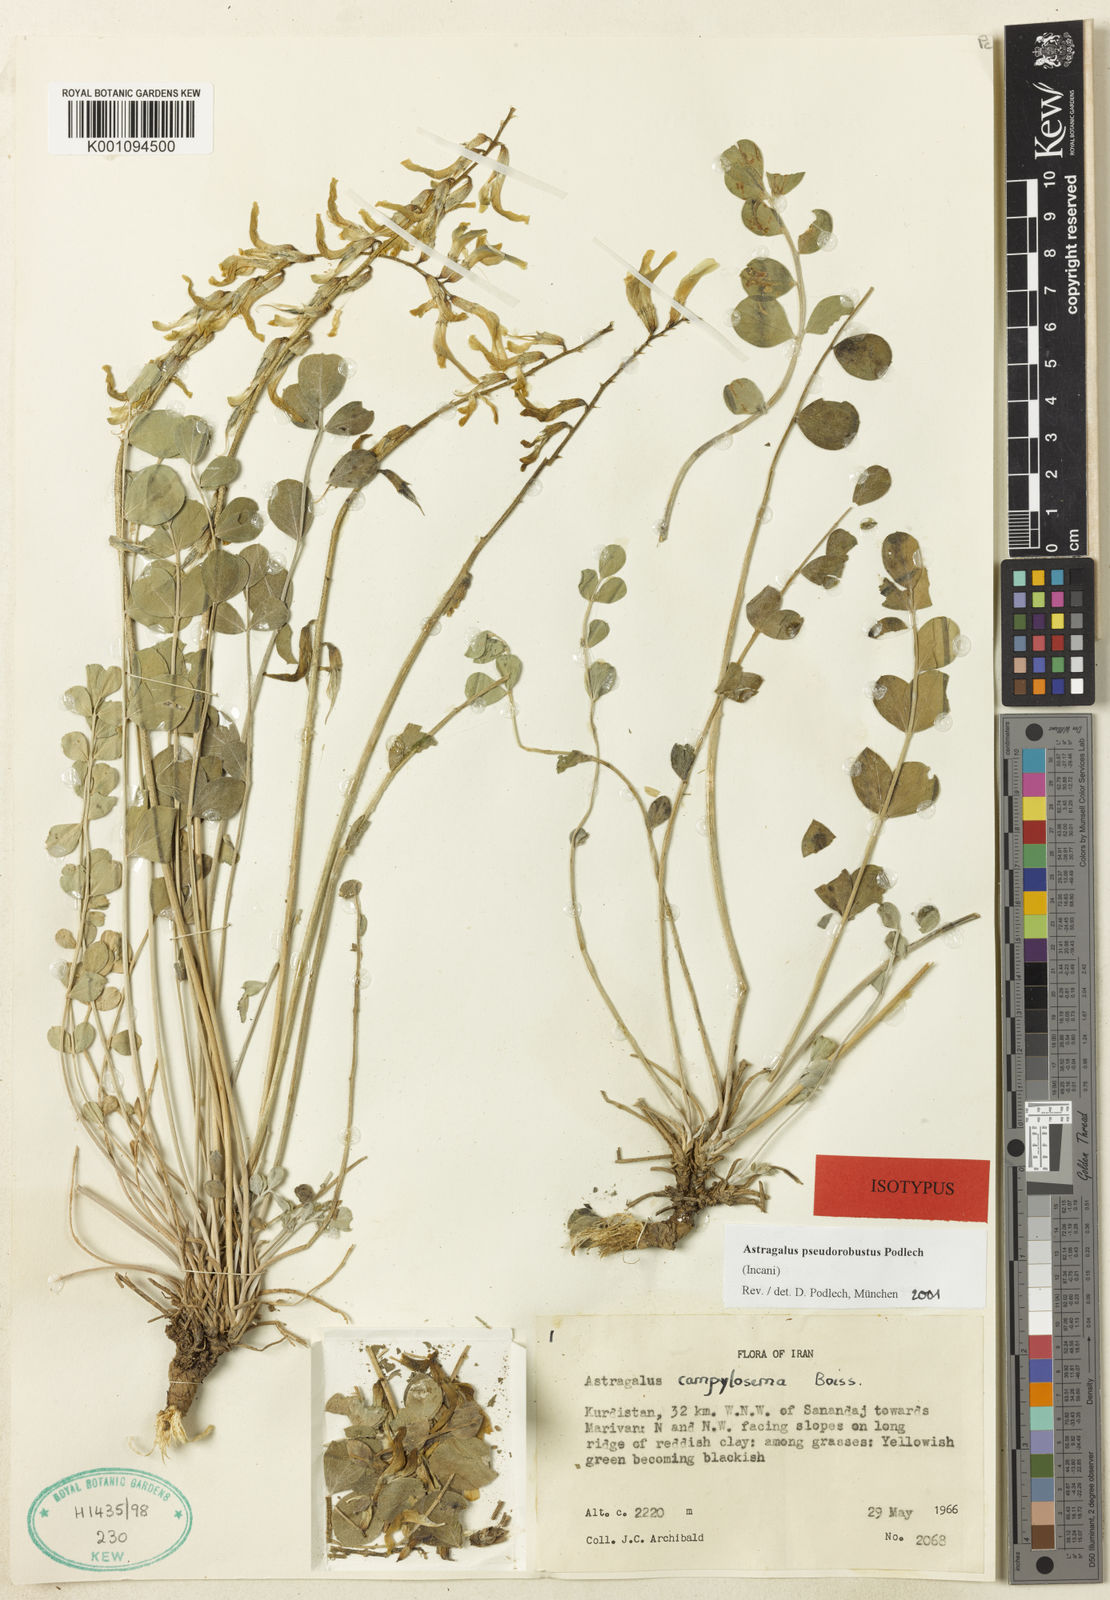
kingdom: Plantae
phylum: Tracheophyta
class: Magnoliopsida
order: Fabales
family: Fabaceae
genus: Astragalus
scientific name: Astragalus
